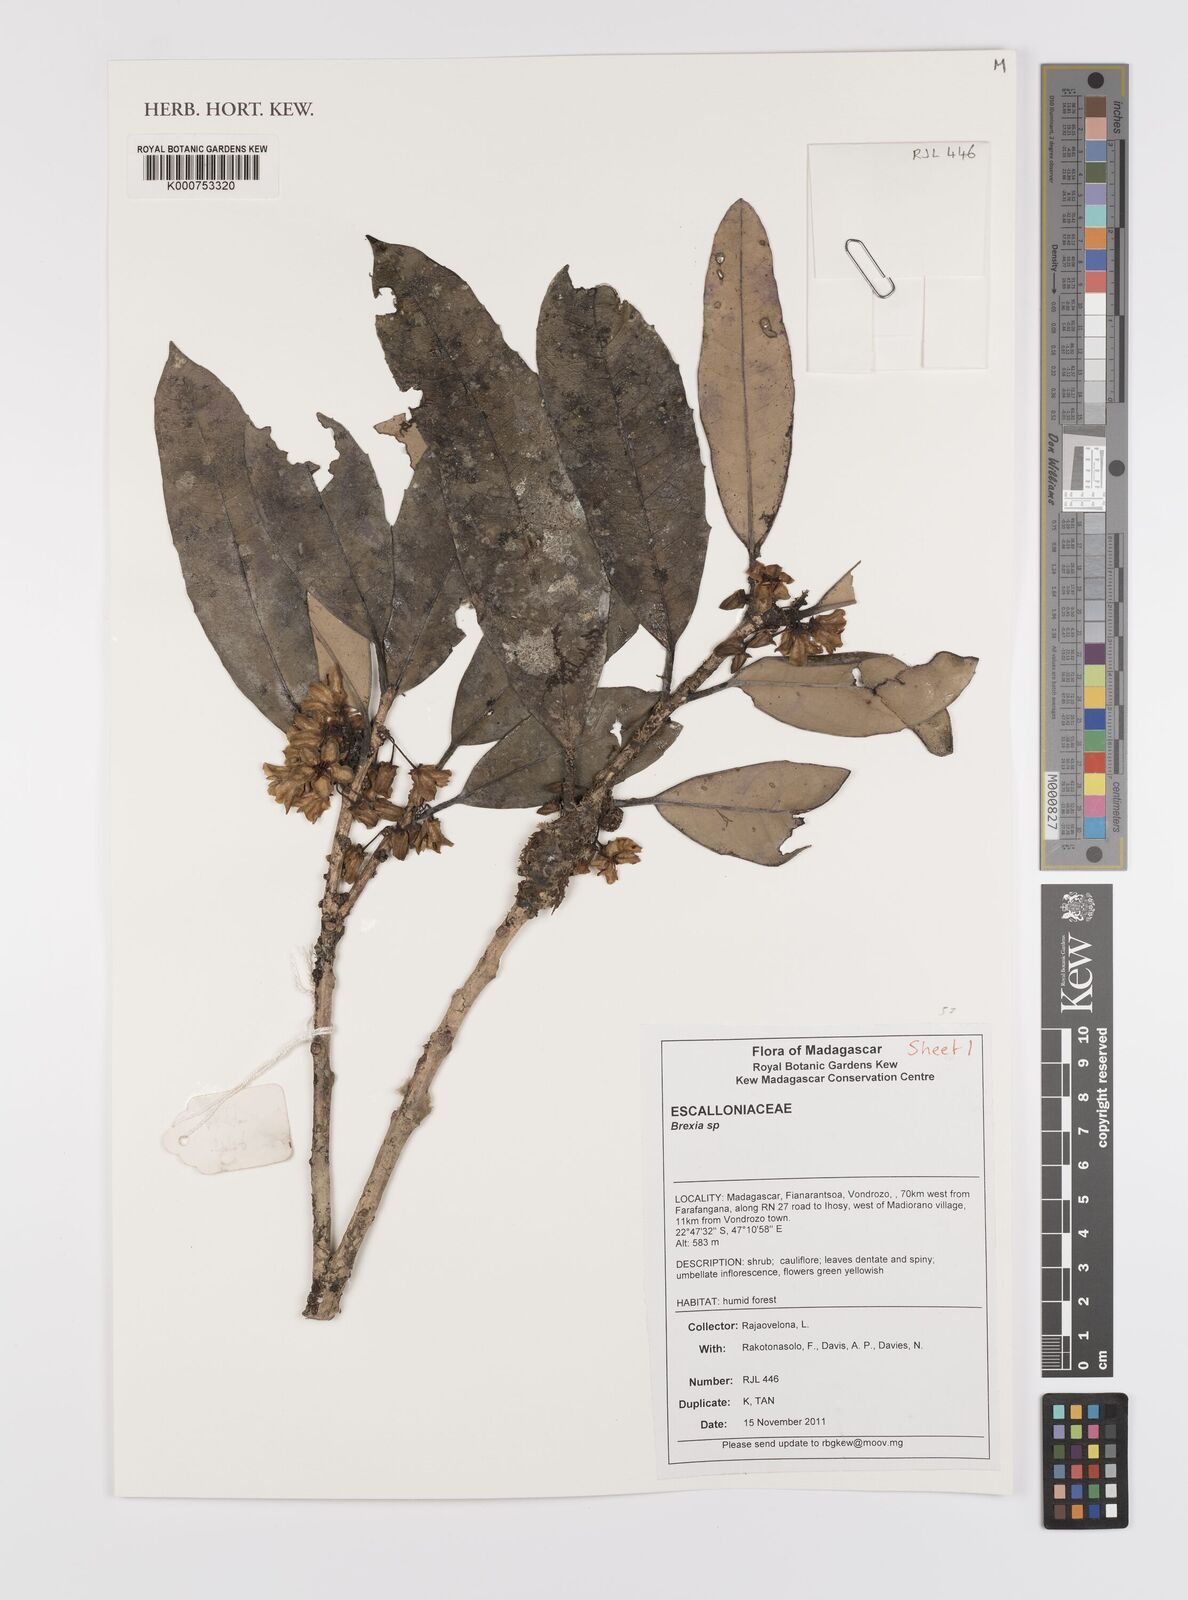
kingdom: Plantae
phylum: Tracheophyta
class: Magnoliopsida
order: Celastrales
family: Celastraceae
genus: Brexia
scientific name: Brexia
